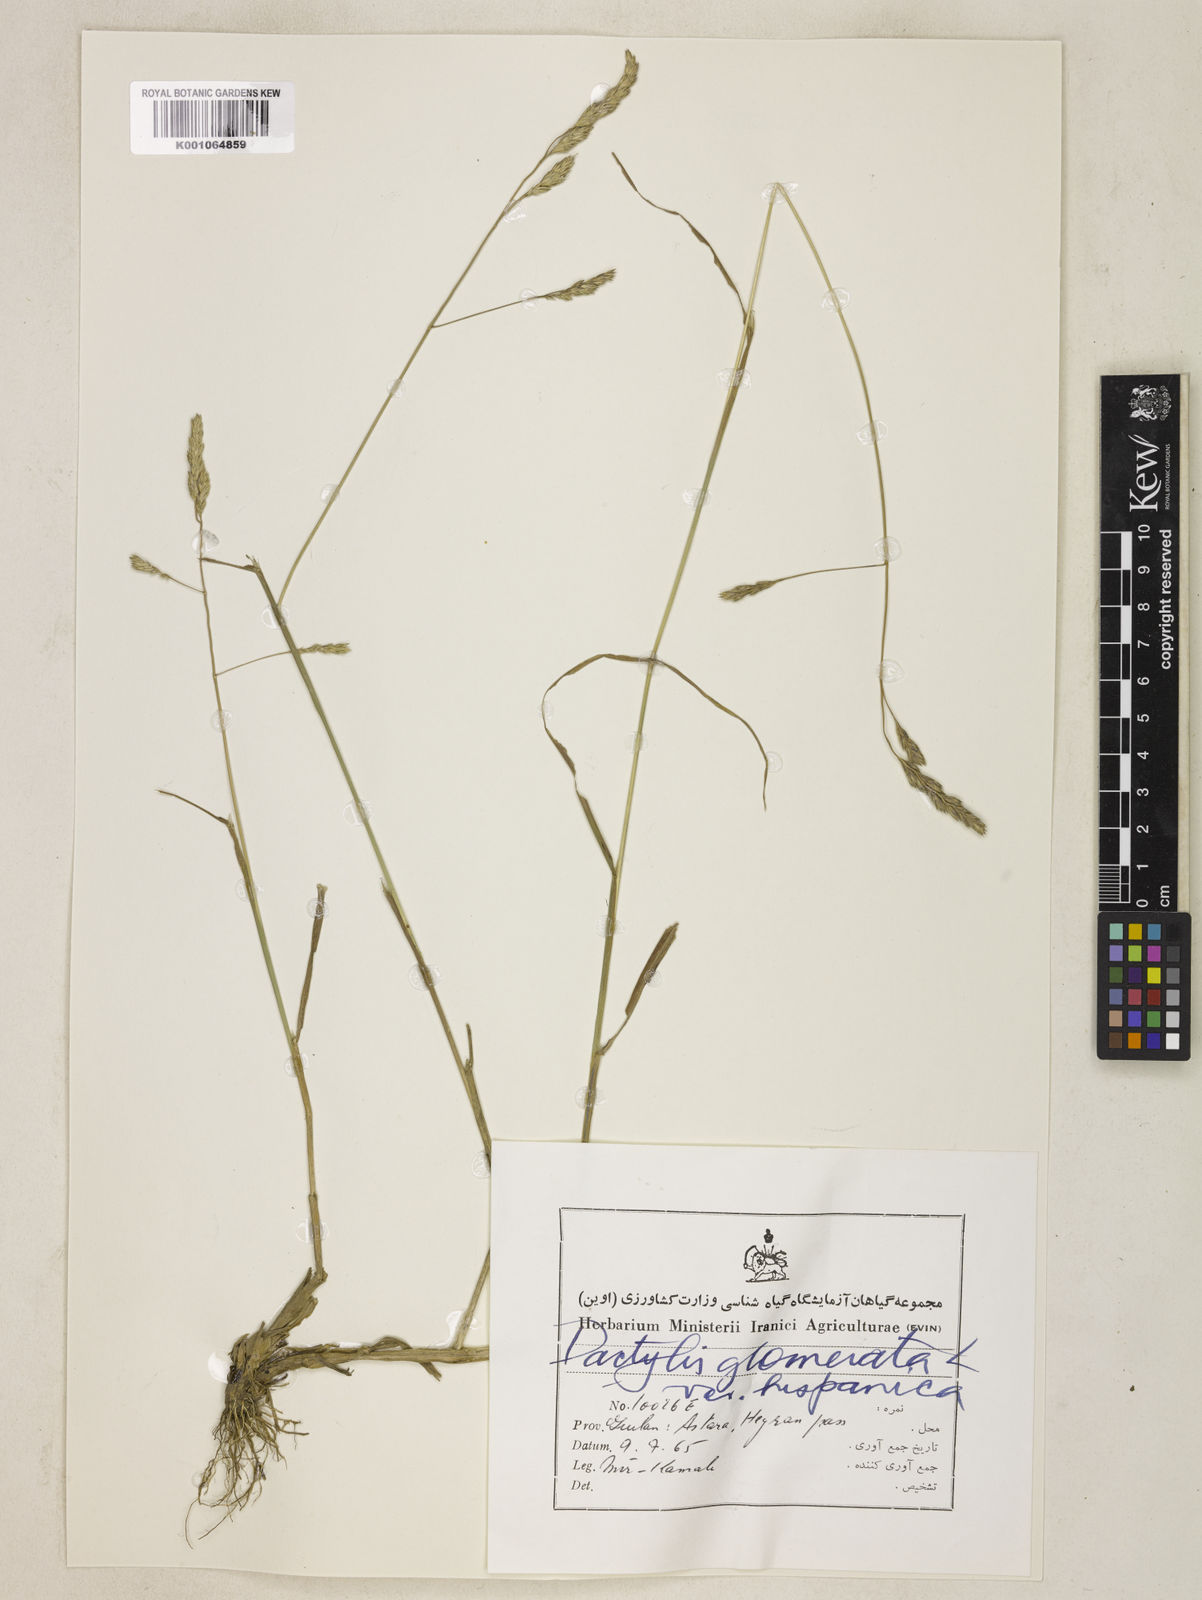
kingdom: Plantae
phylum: Tracheophyta
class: Liliopsida
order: Poales
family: Poaceae
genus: Dactylis
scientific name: Dactylis glomerata
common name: Orchardgrass
